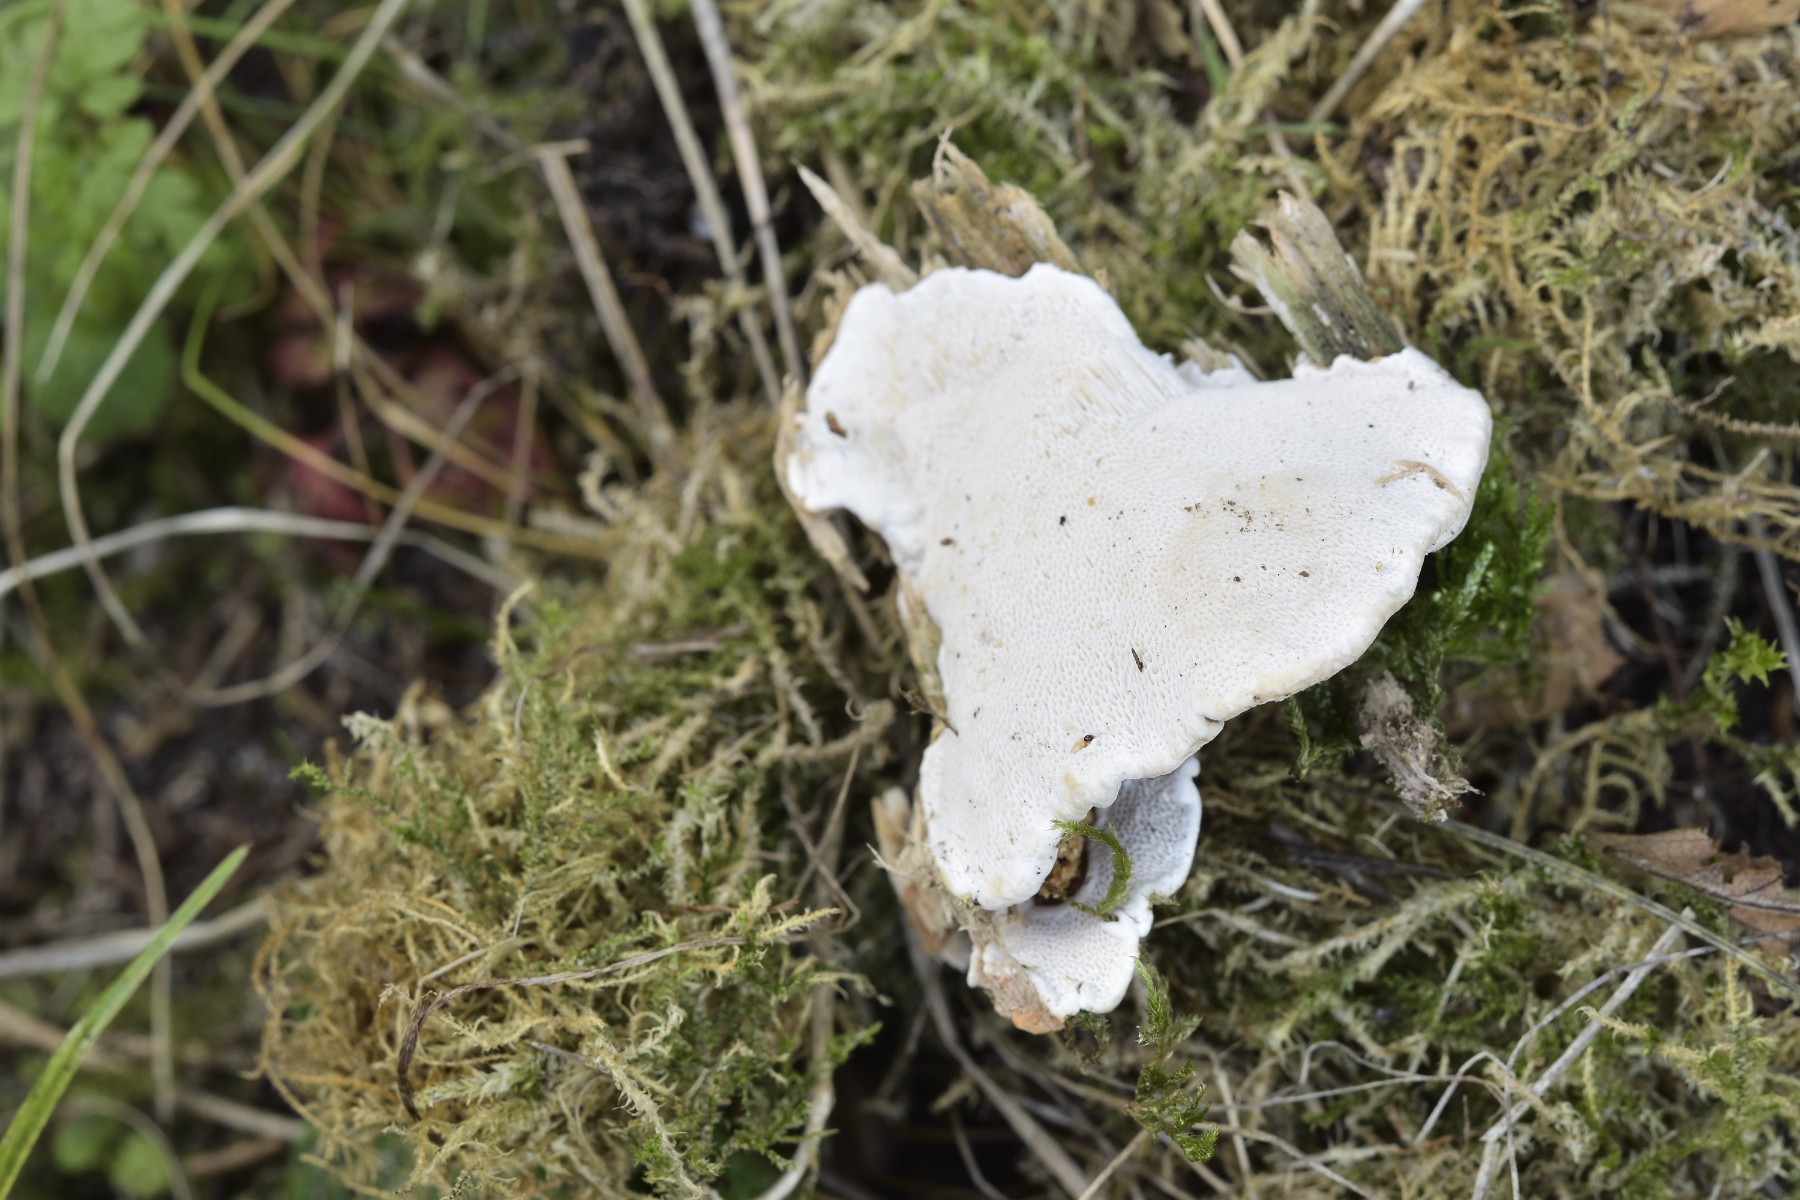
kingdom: Fungi
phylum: Basidiomycota
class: Agaricomycetes
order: Russulales
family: Bondarzewiaceae
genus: Heterobasidion
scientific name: Heterobasidion parviporum
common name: småporet rodfordærver
